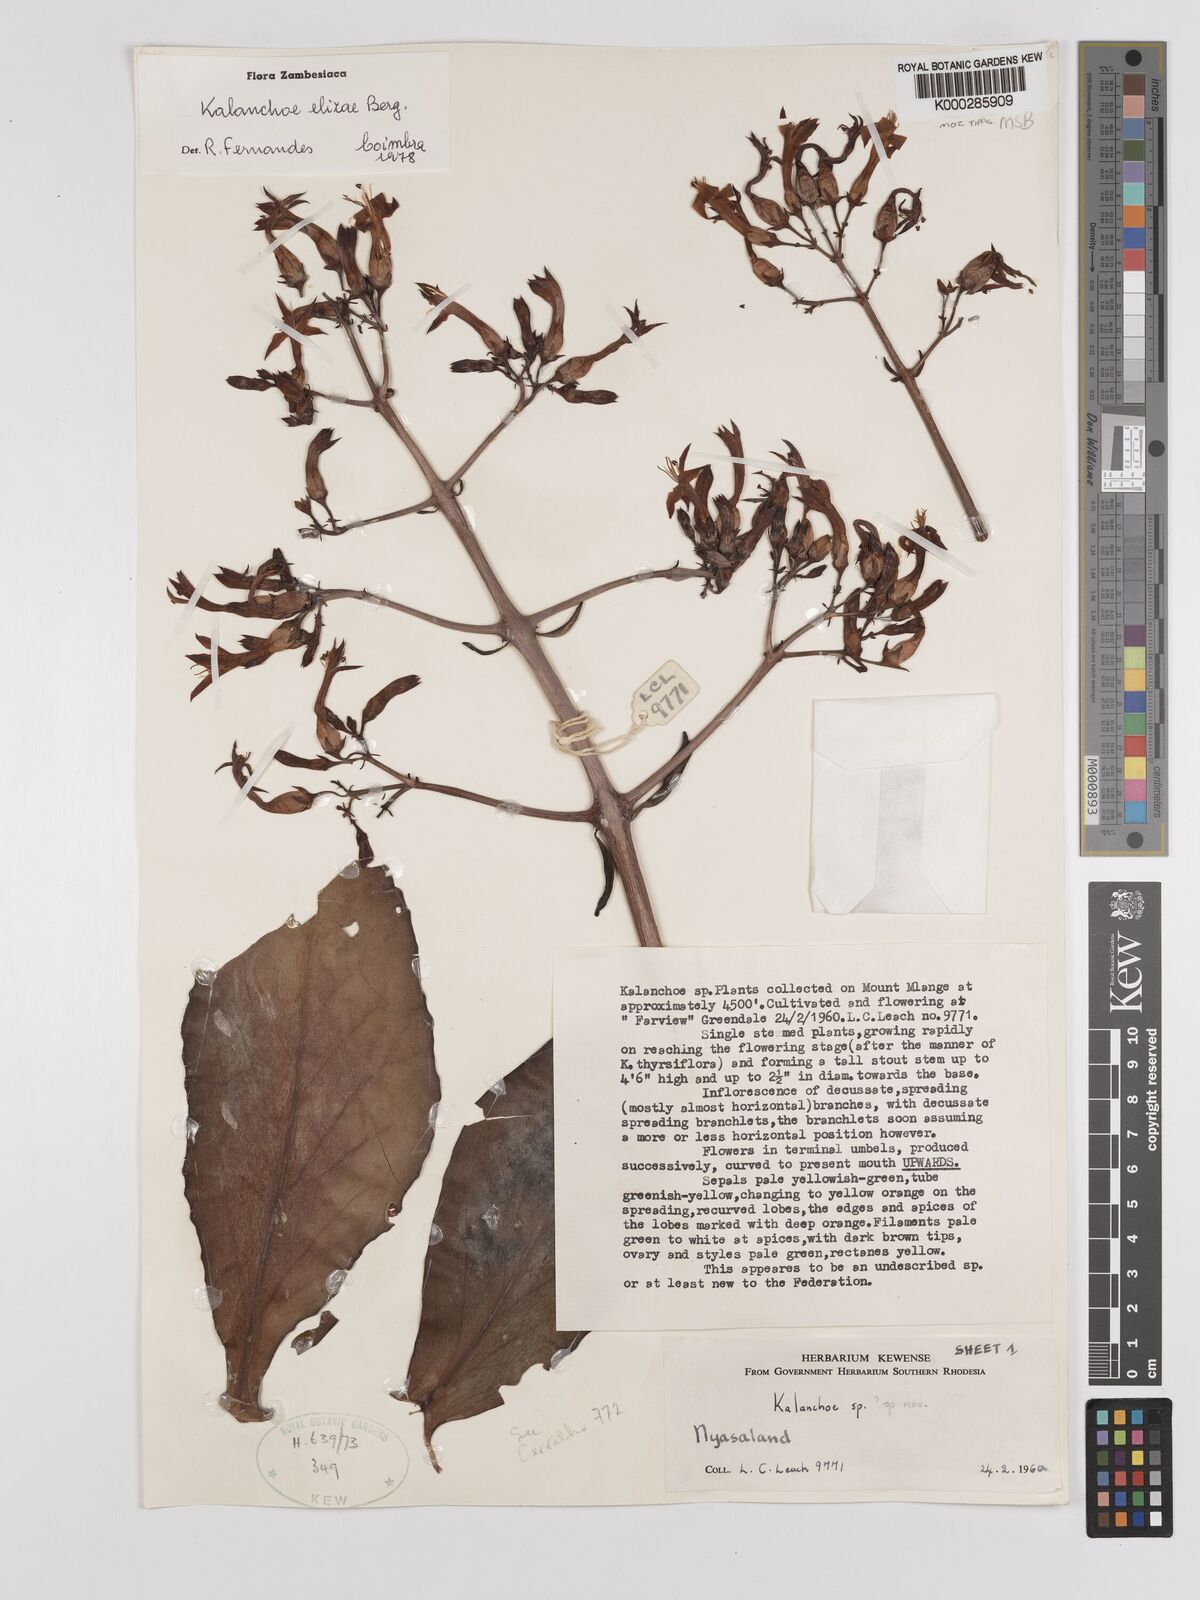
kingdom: Plantae
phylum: Tracheophyta
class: Magnoliopsida
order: Saxifragales
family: Crassulaceae
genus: Kalanchoe
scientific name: Kalanchoe elizae
